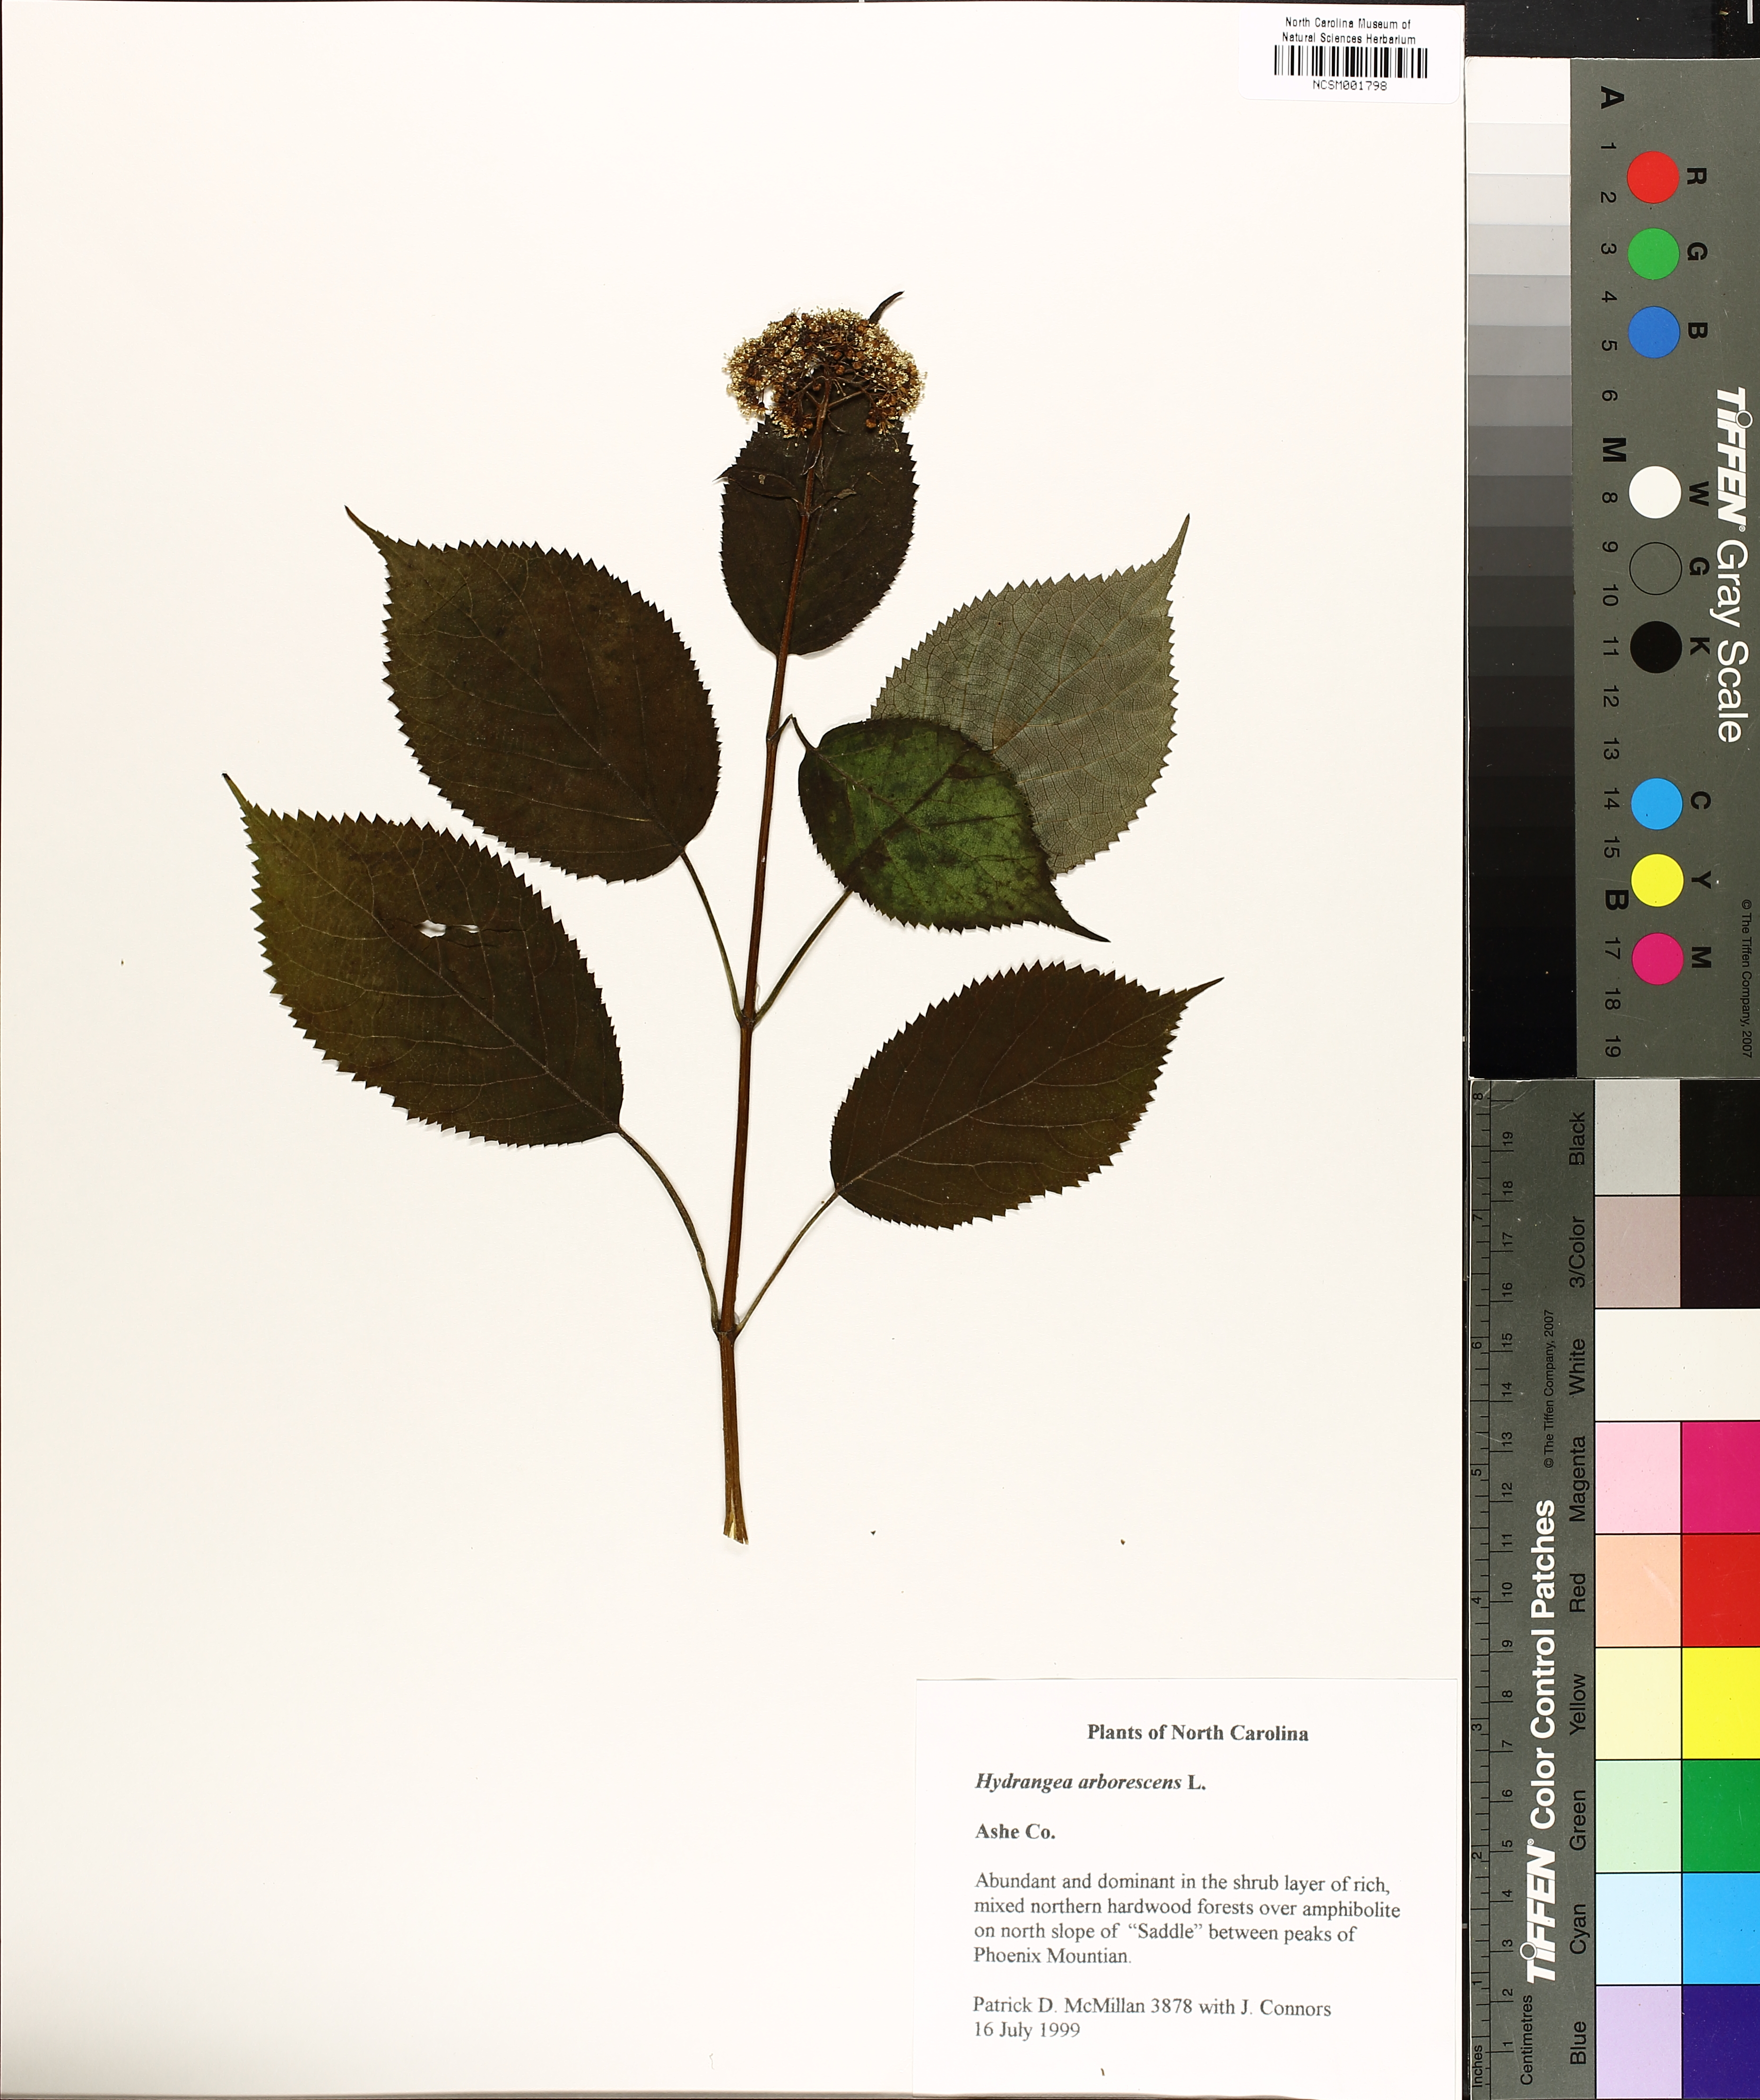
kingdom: Plantae
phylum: Tracheophyta
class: Magnoliopsida
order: Cornales
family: Hydrangeaceae
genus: Hydrangea
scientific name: Hydrangea arborescens
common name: Sevenbark
